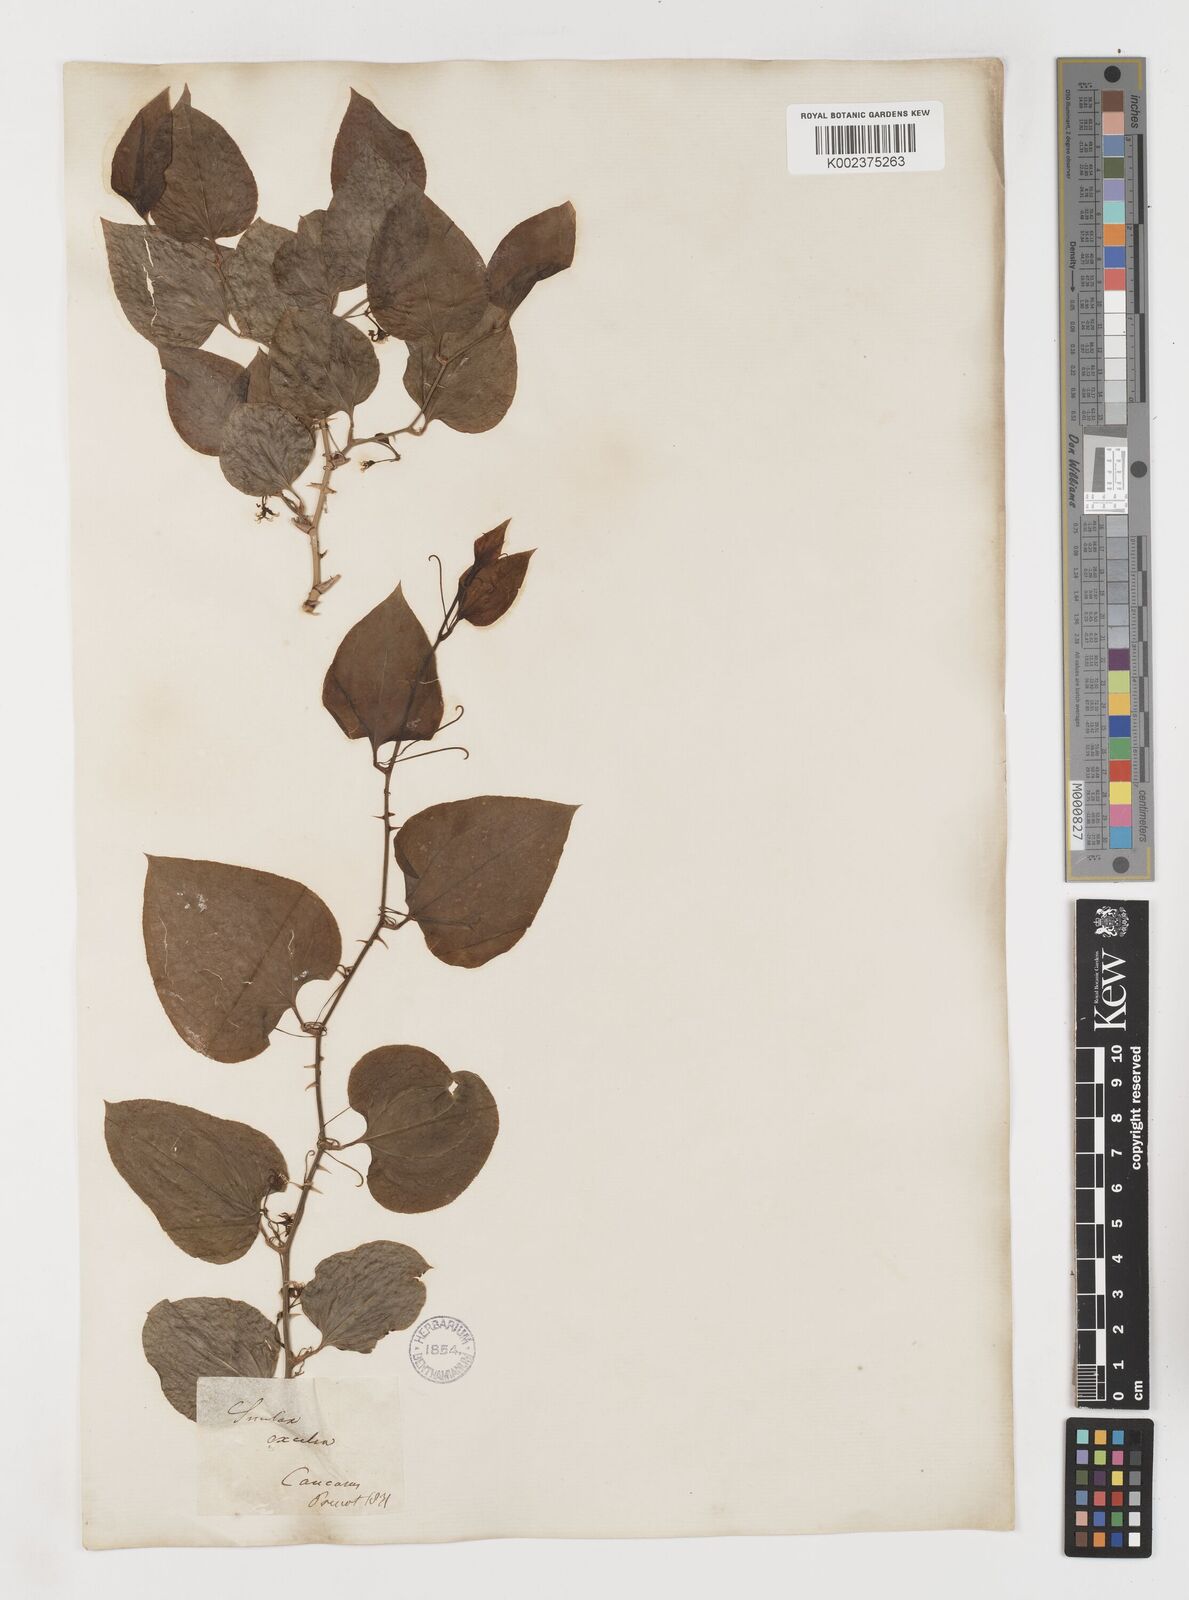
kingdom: Plantae
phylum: Tracheophyta
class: Liliopsida
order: Liliales
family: Smilacaceae
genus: Smilax
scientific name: Smilax excelsa
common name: Larger smilax
